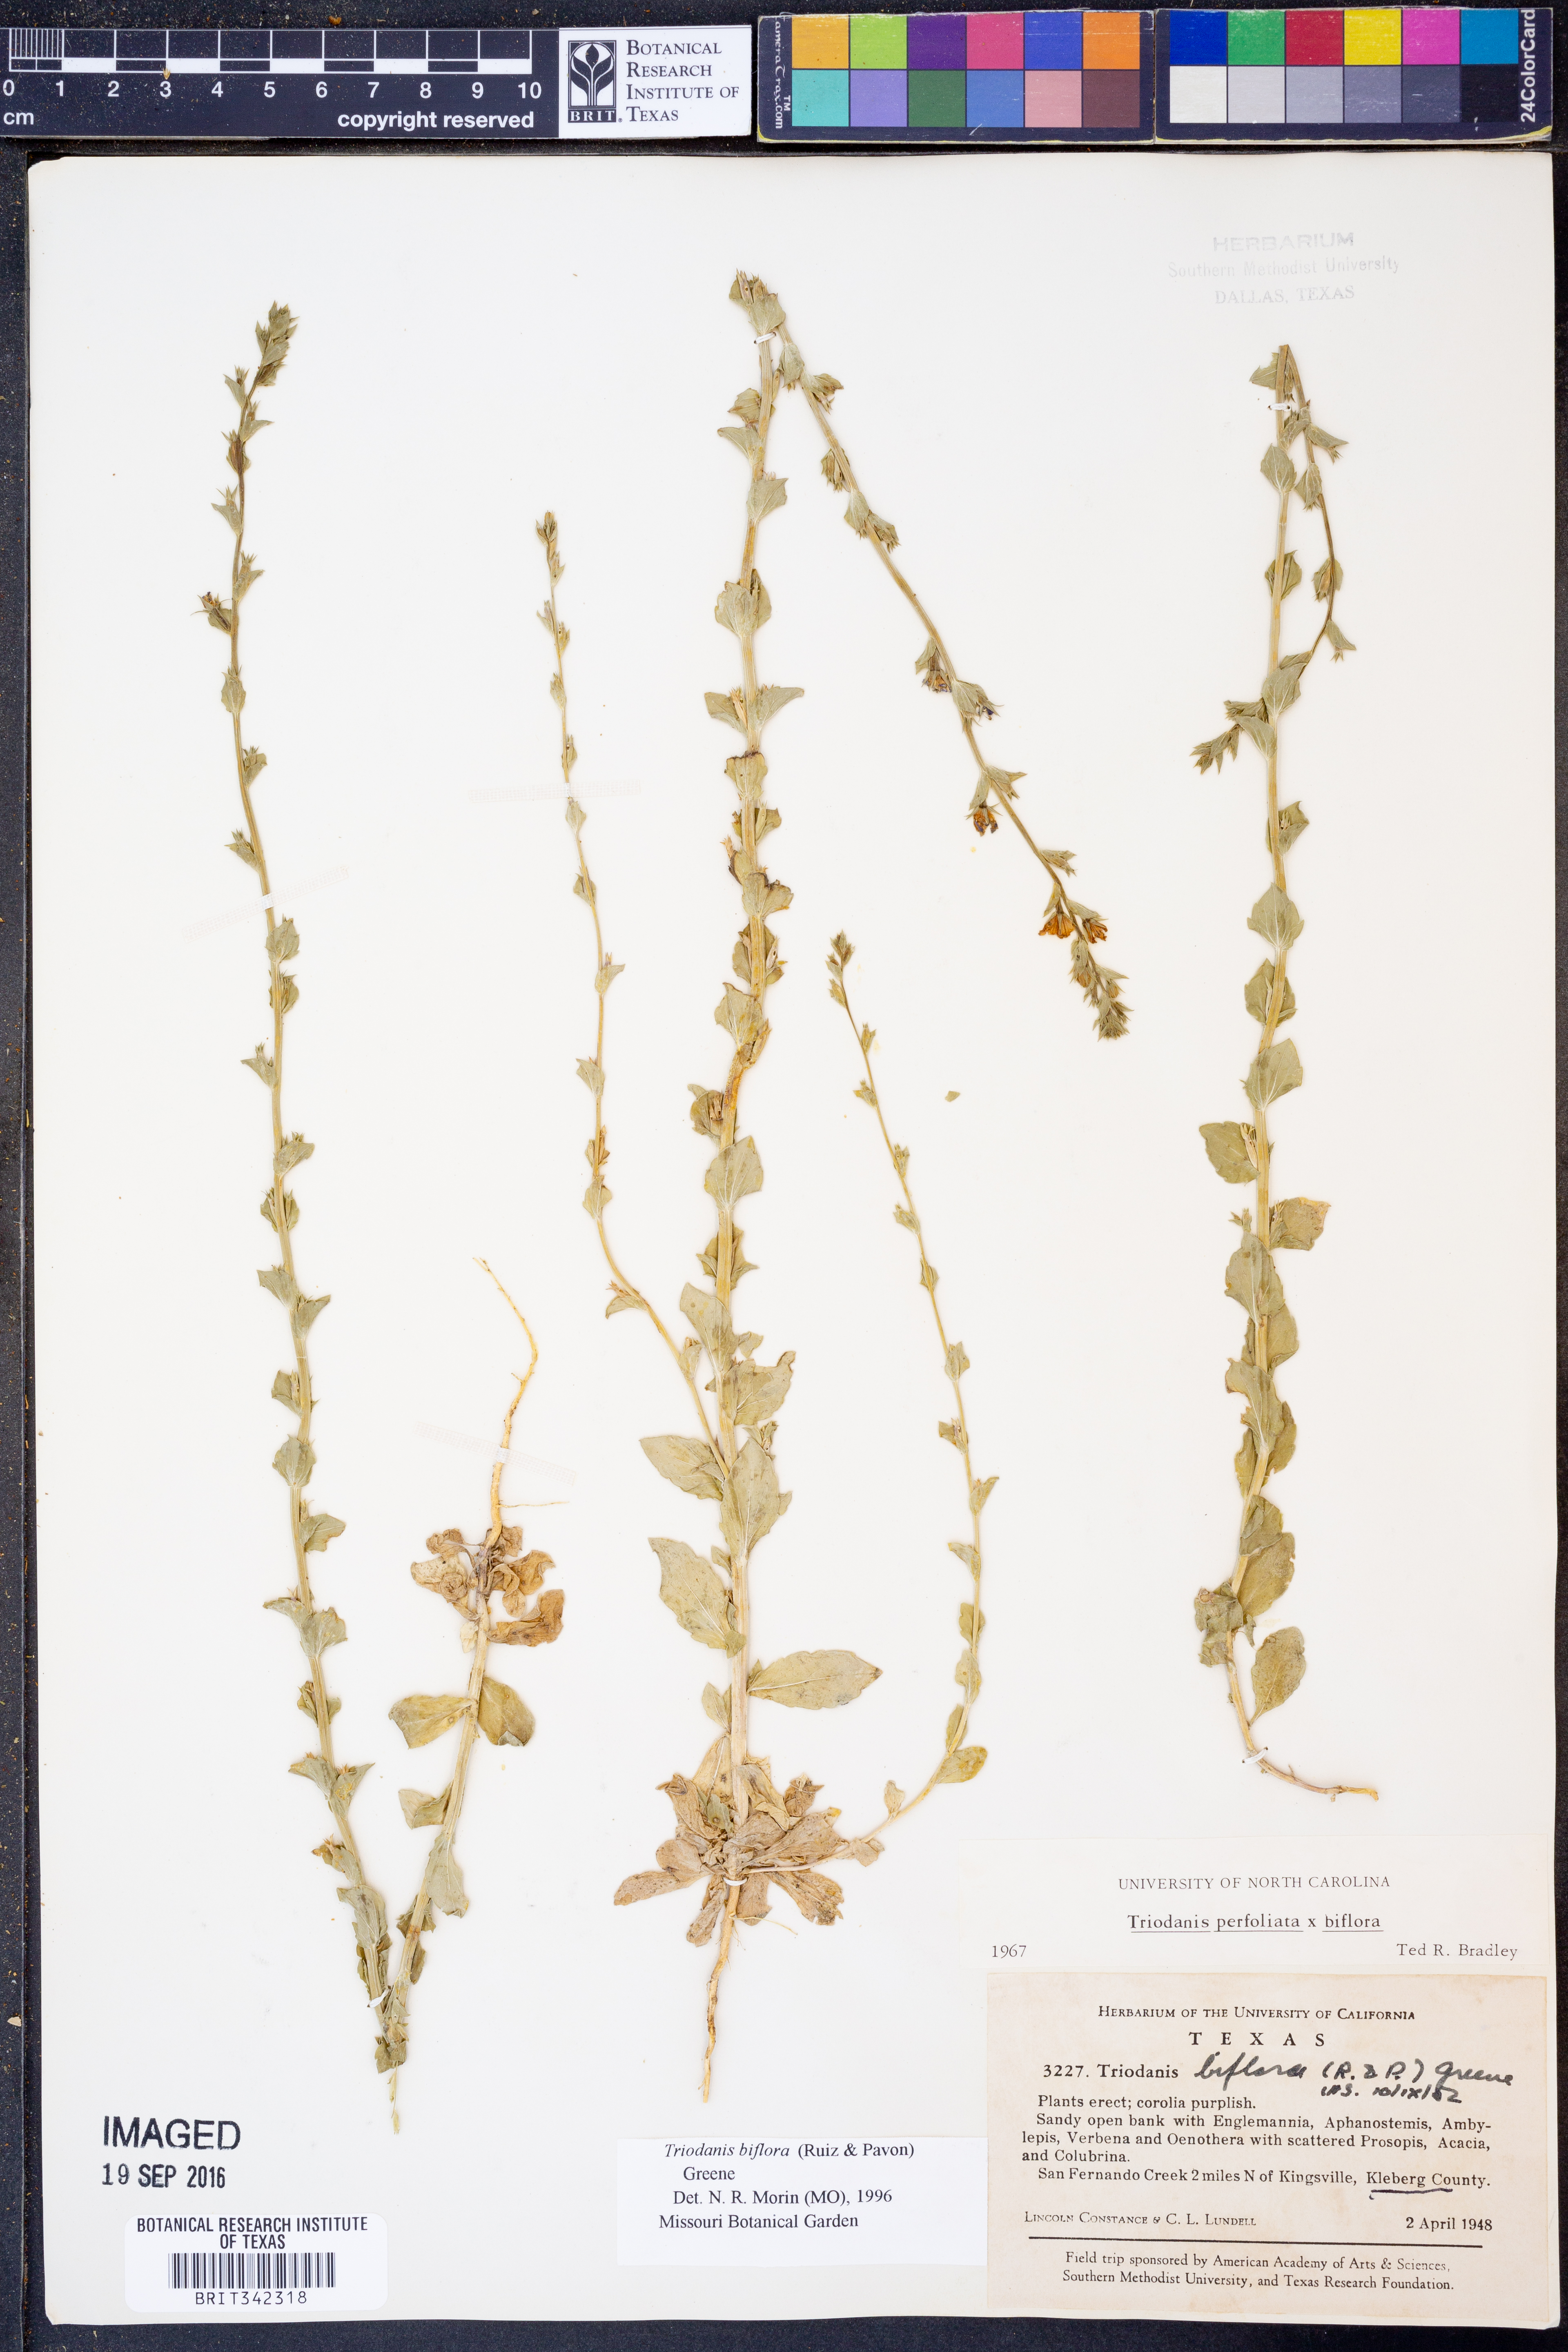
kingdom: Plantae
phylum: Tracheophyta
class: Magnoliopsida
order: Asterales
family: Campanulaceae
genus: Triodanis
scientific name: Triodanis perfoliata
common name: Clasping venus' looking-glass
